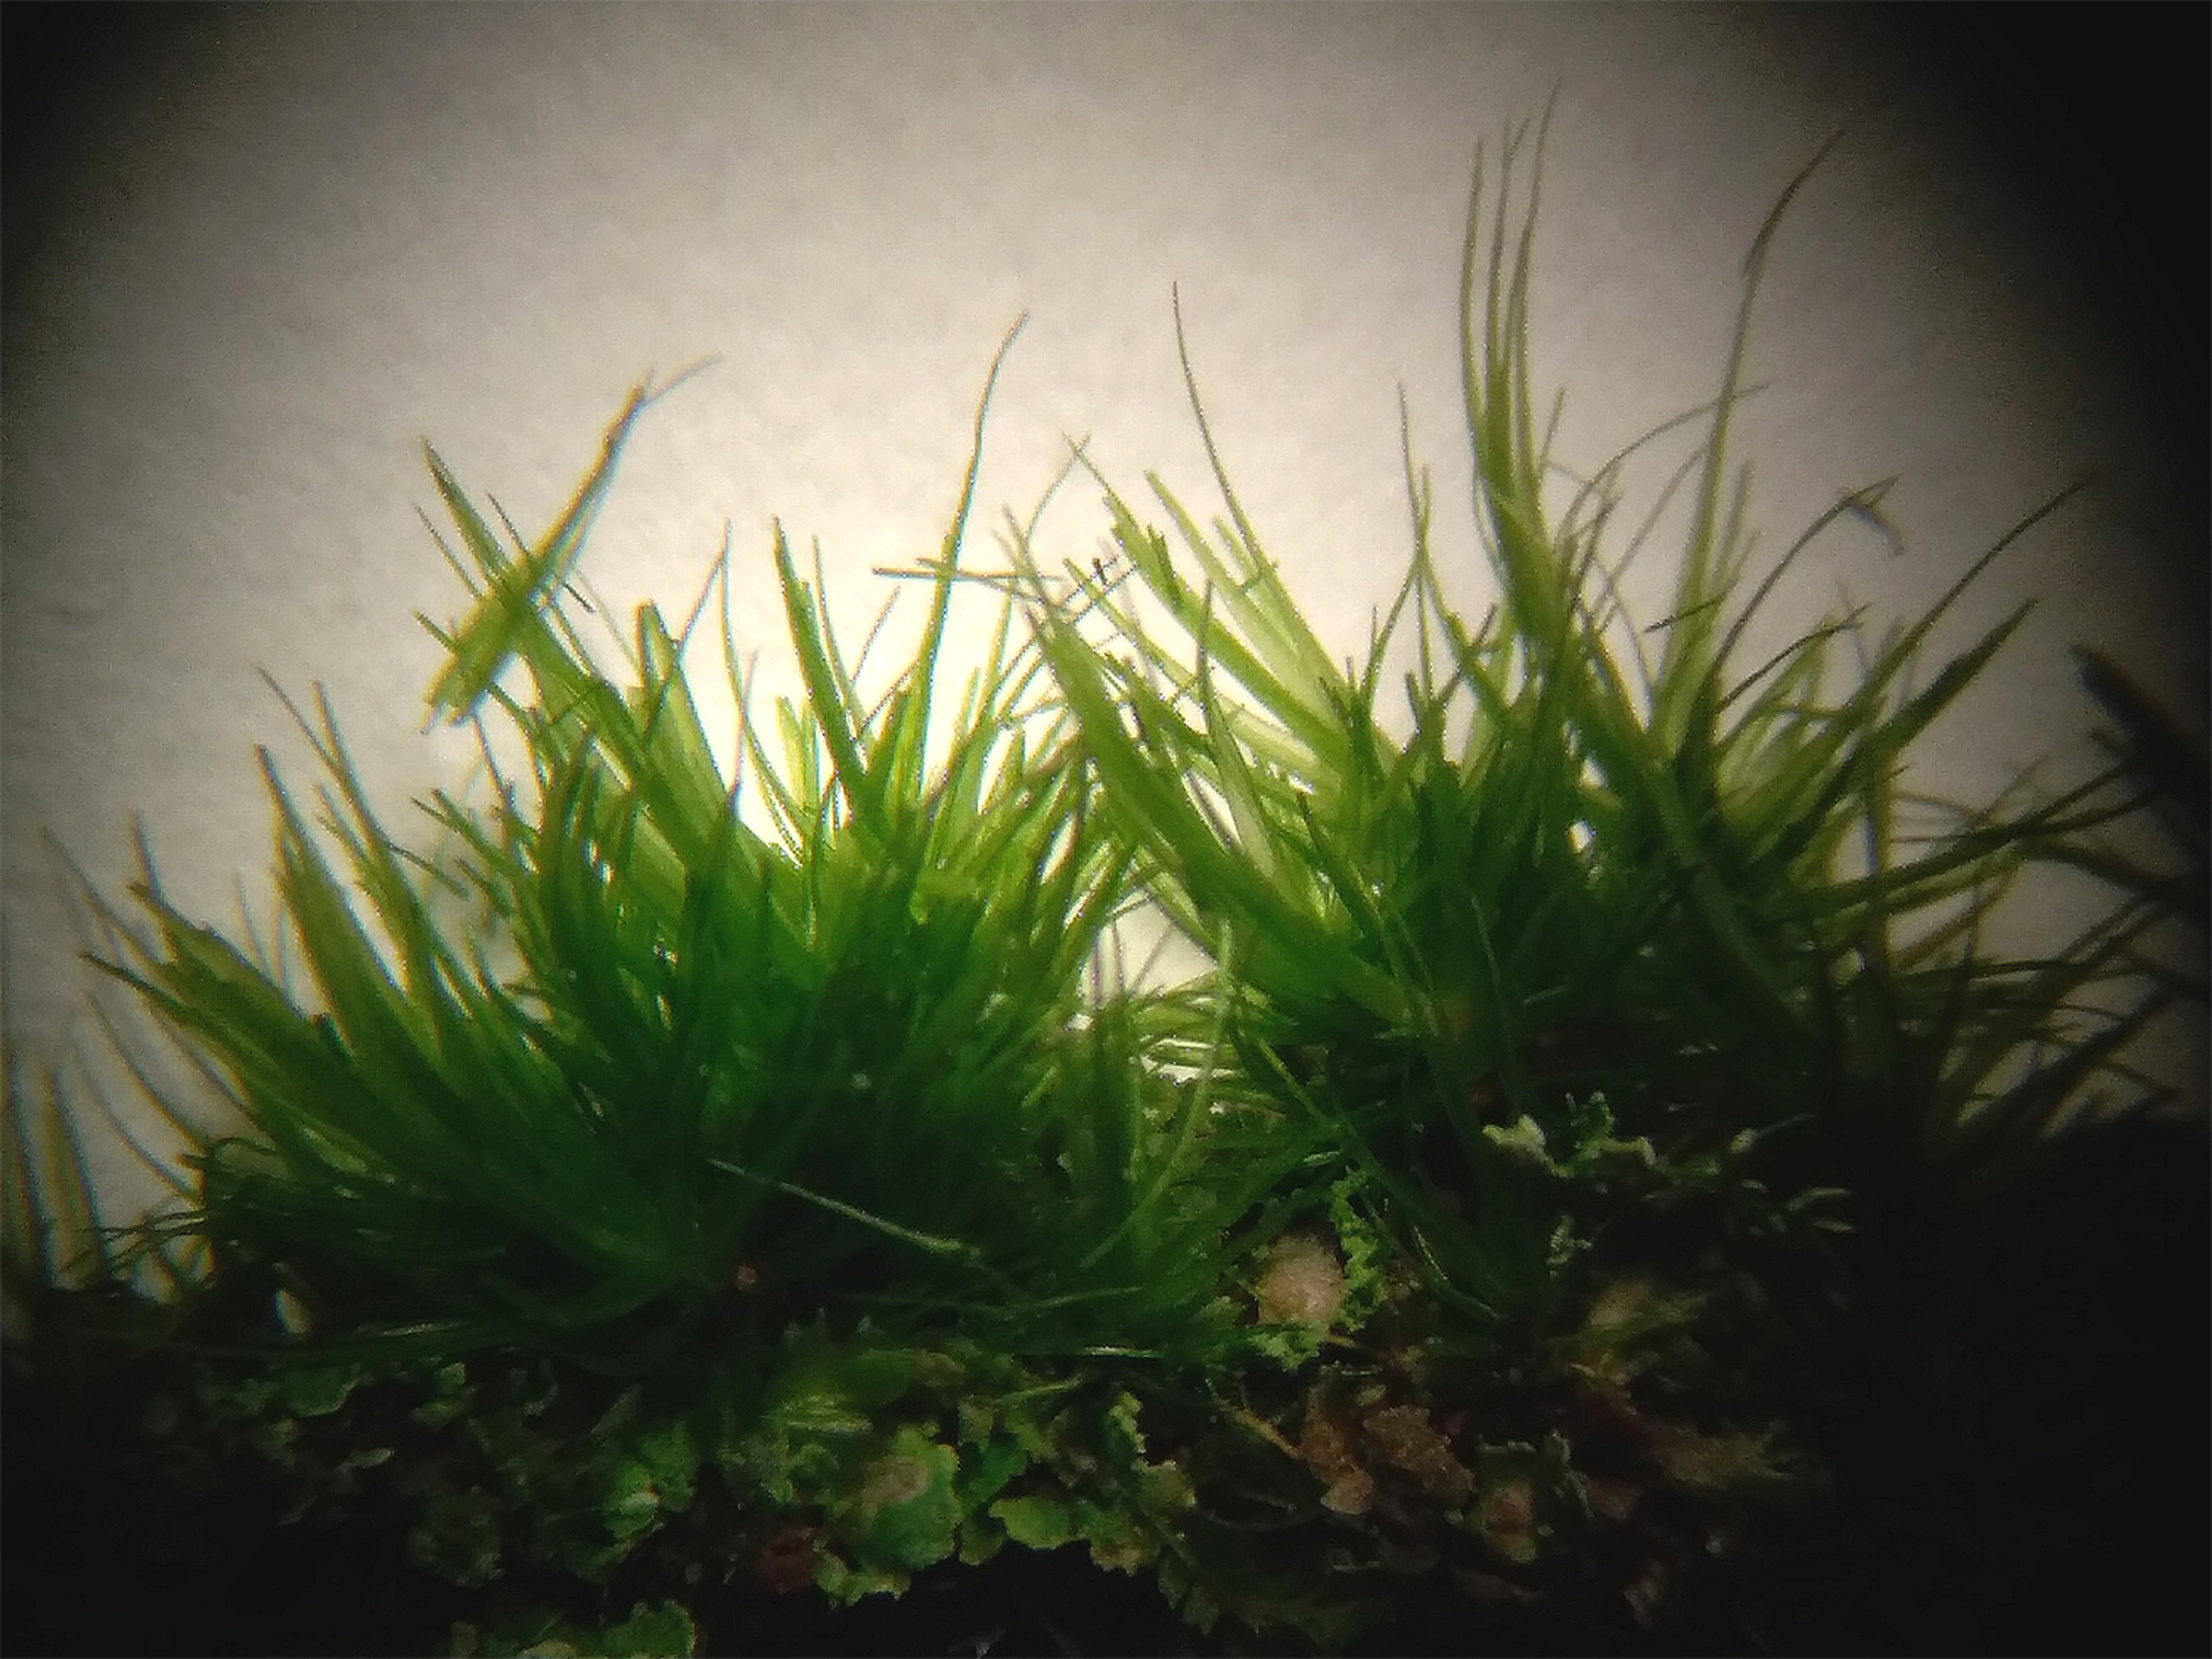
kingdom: Plantae
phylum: Bryophyta
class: Bryopsida
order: Dicranales
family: Dicranaceae
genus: Orthodicranum
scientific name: Orthodicranum tauricum
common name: Skør tyndvinge
